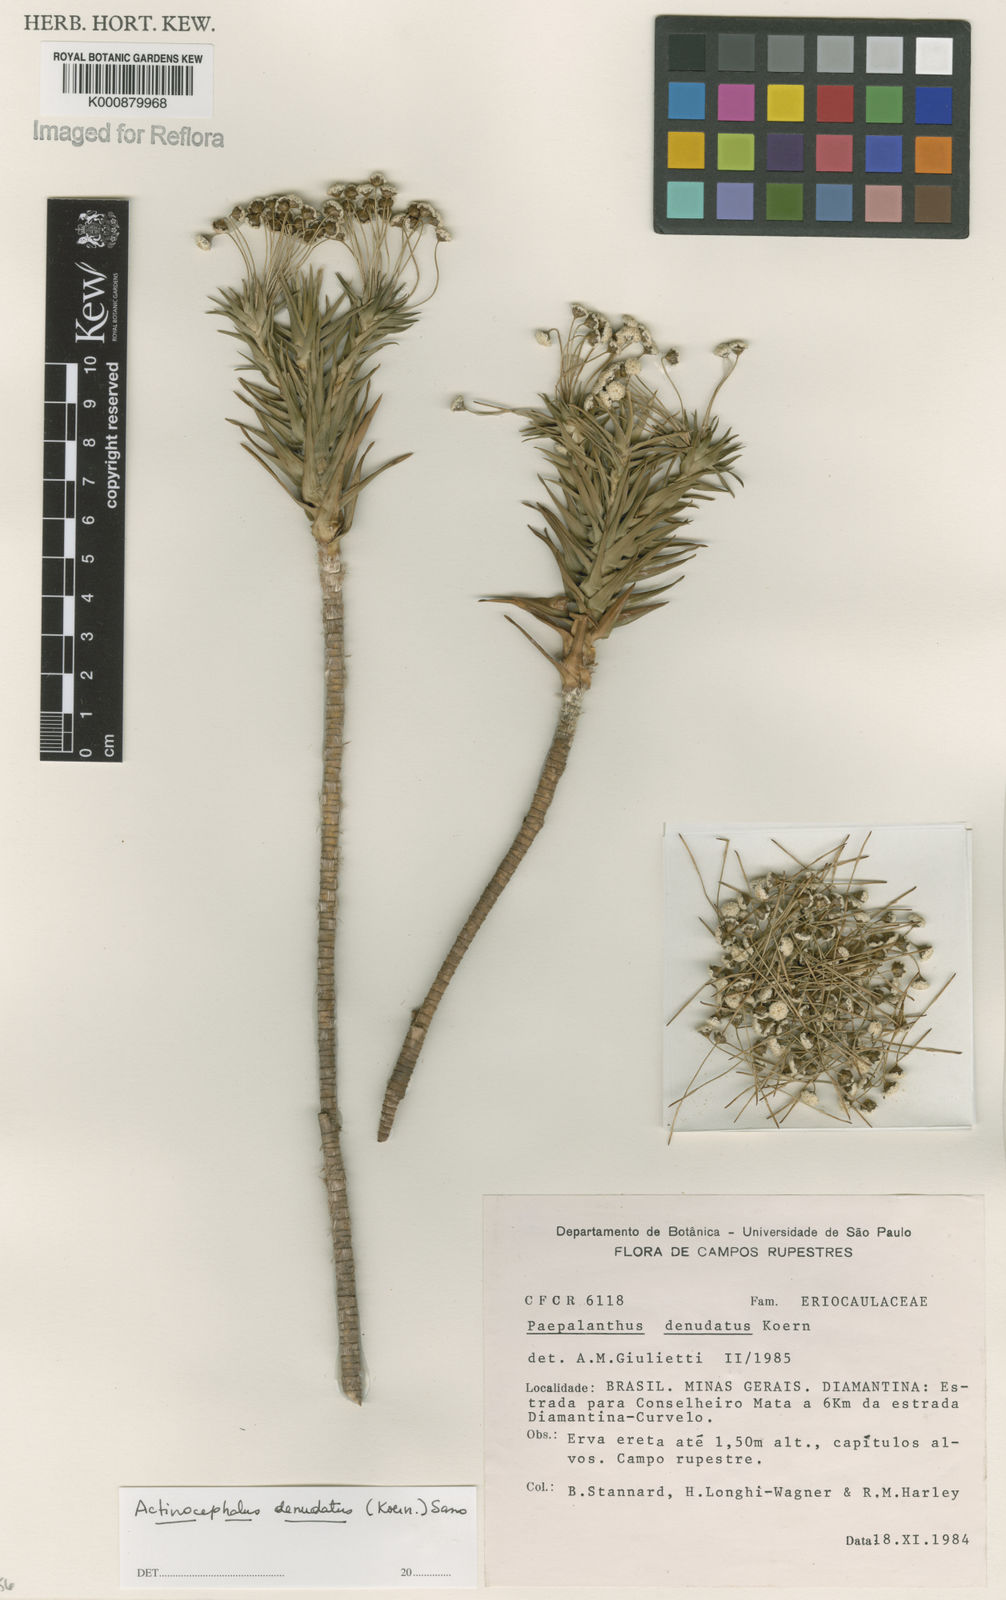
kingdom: Plantae
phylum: Tracheophyta
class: Liliopsida
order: Poales
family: Eriocaulaceae
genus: Paepalanthus
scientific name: Paepalanthus
